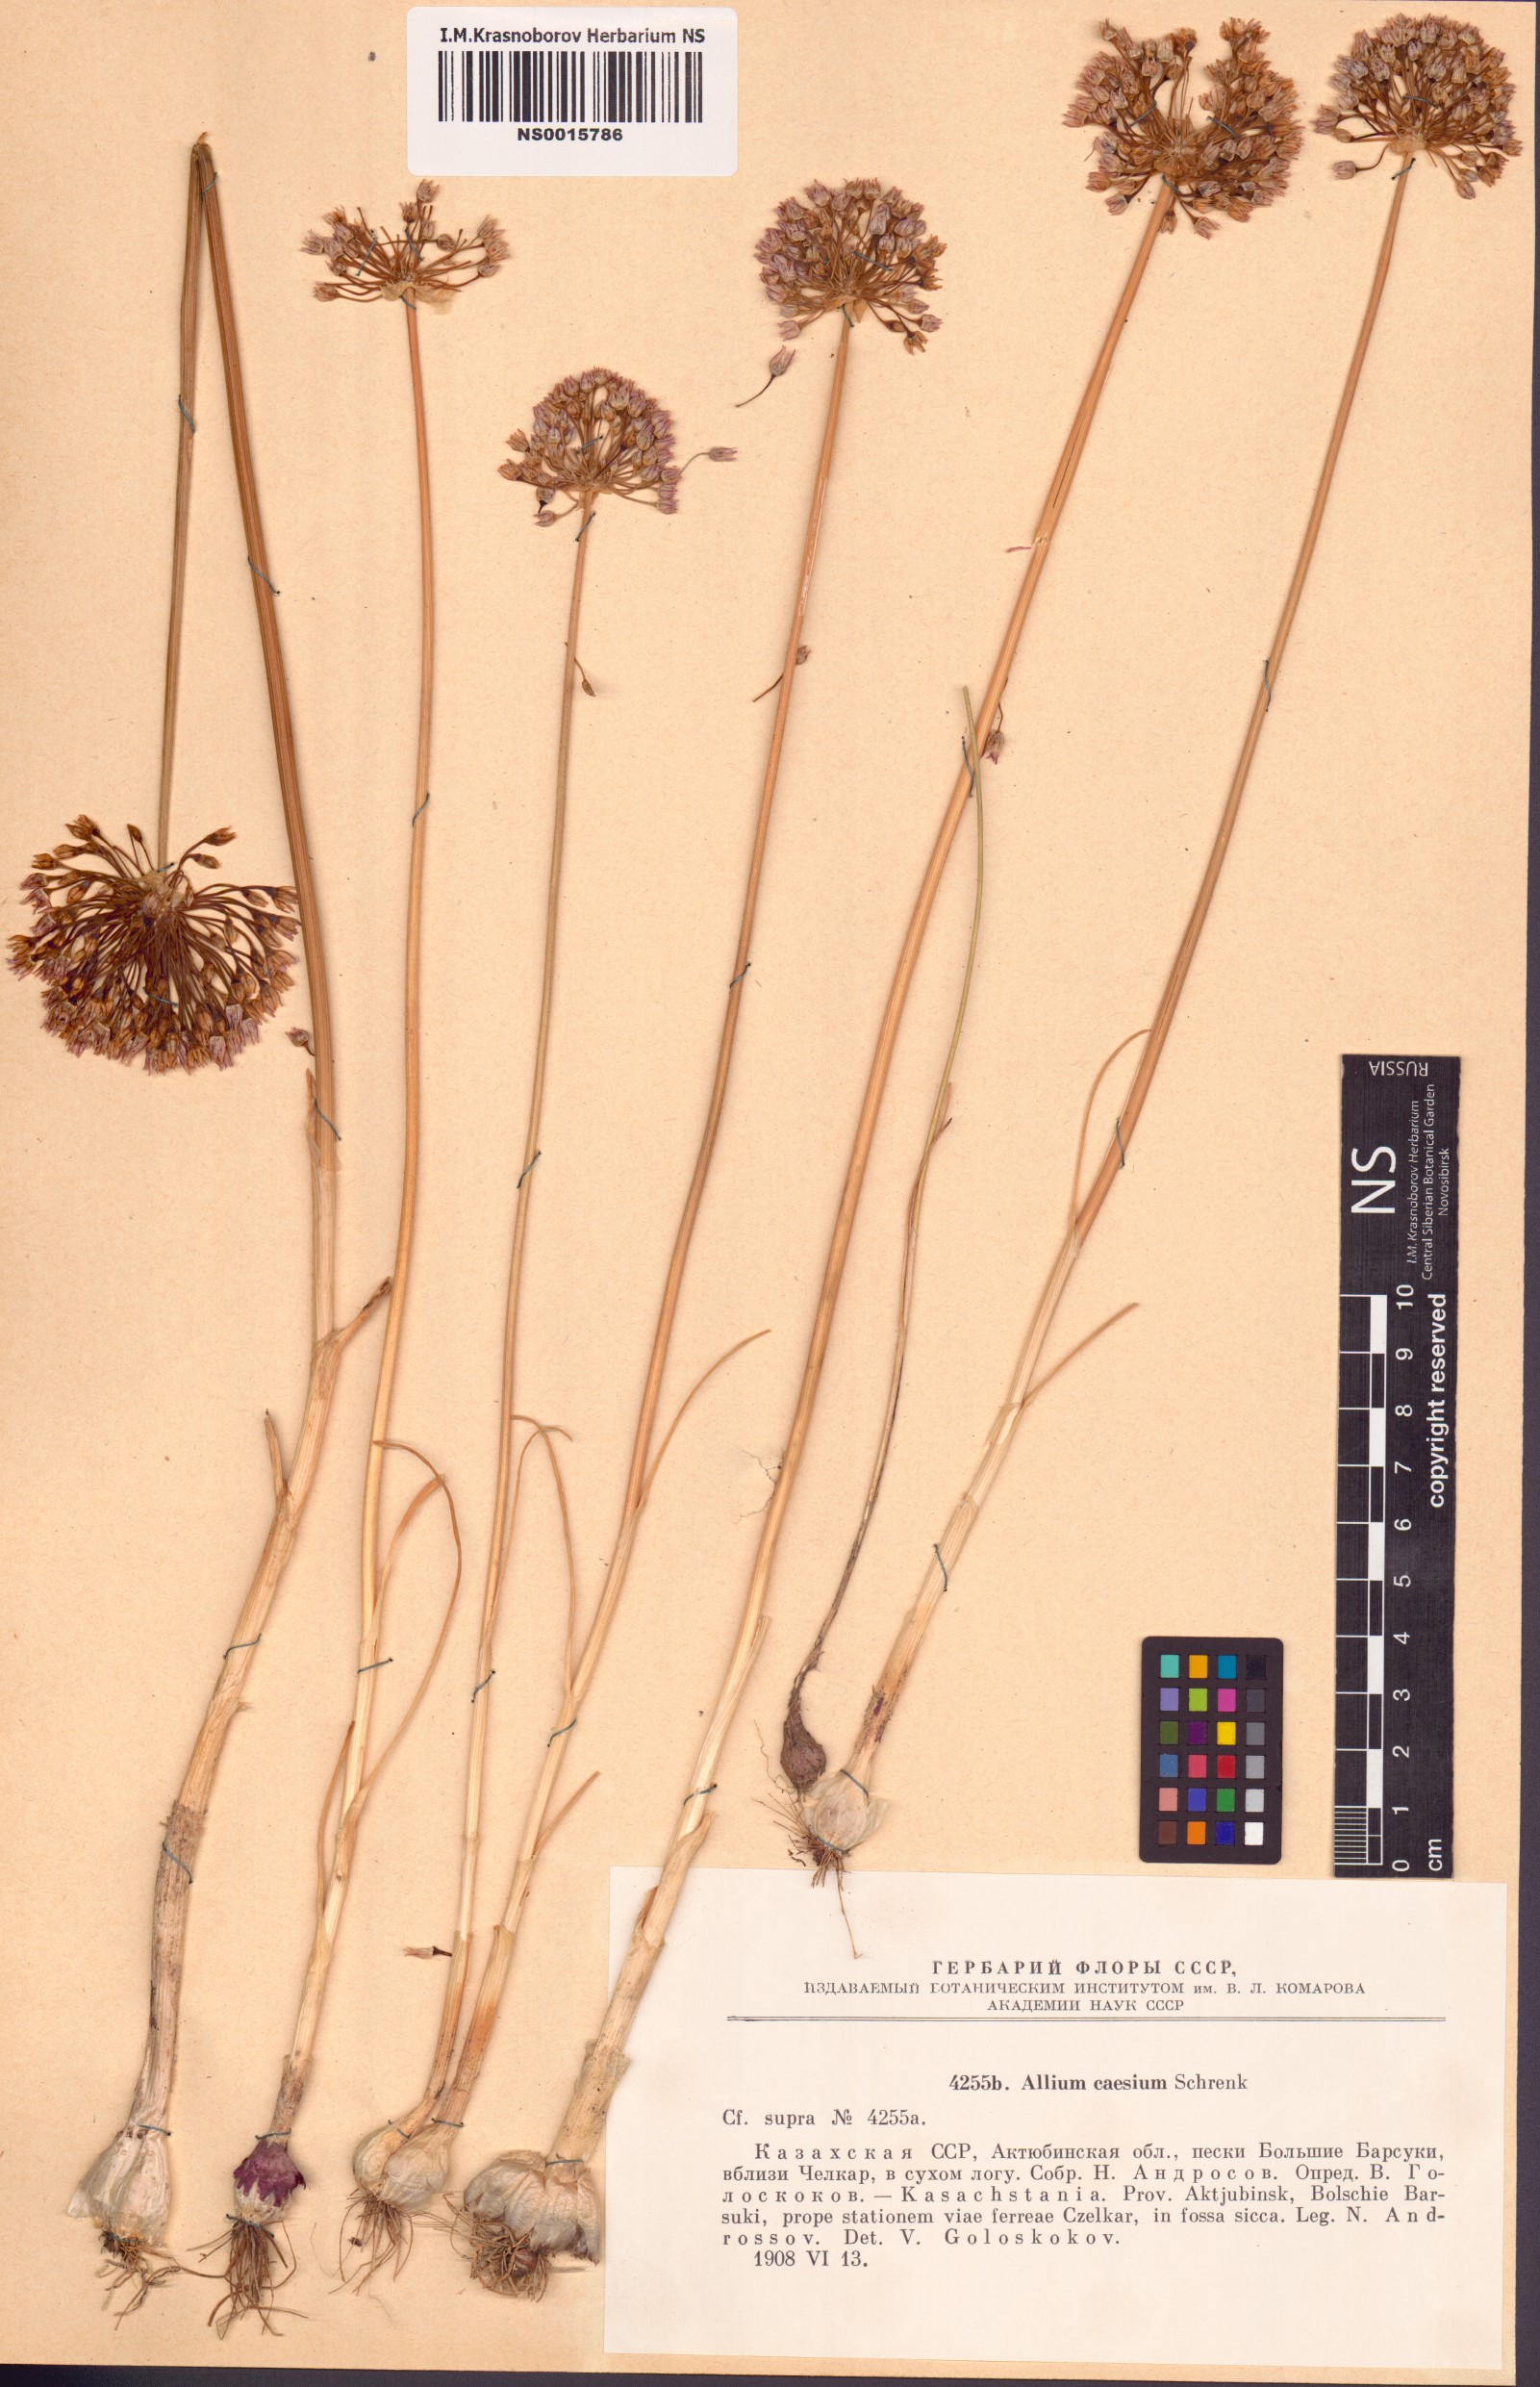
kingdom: Plantae
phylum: Tracheophyta
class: Liliopsida
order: Asparagales
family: Amaryllidaceae
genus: Allium
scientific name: Allium caesium
